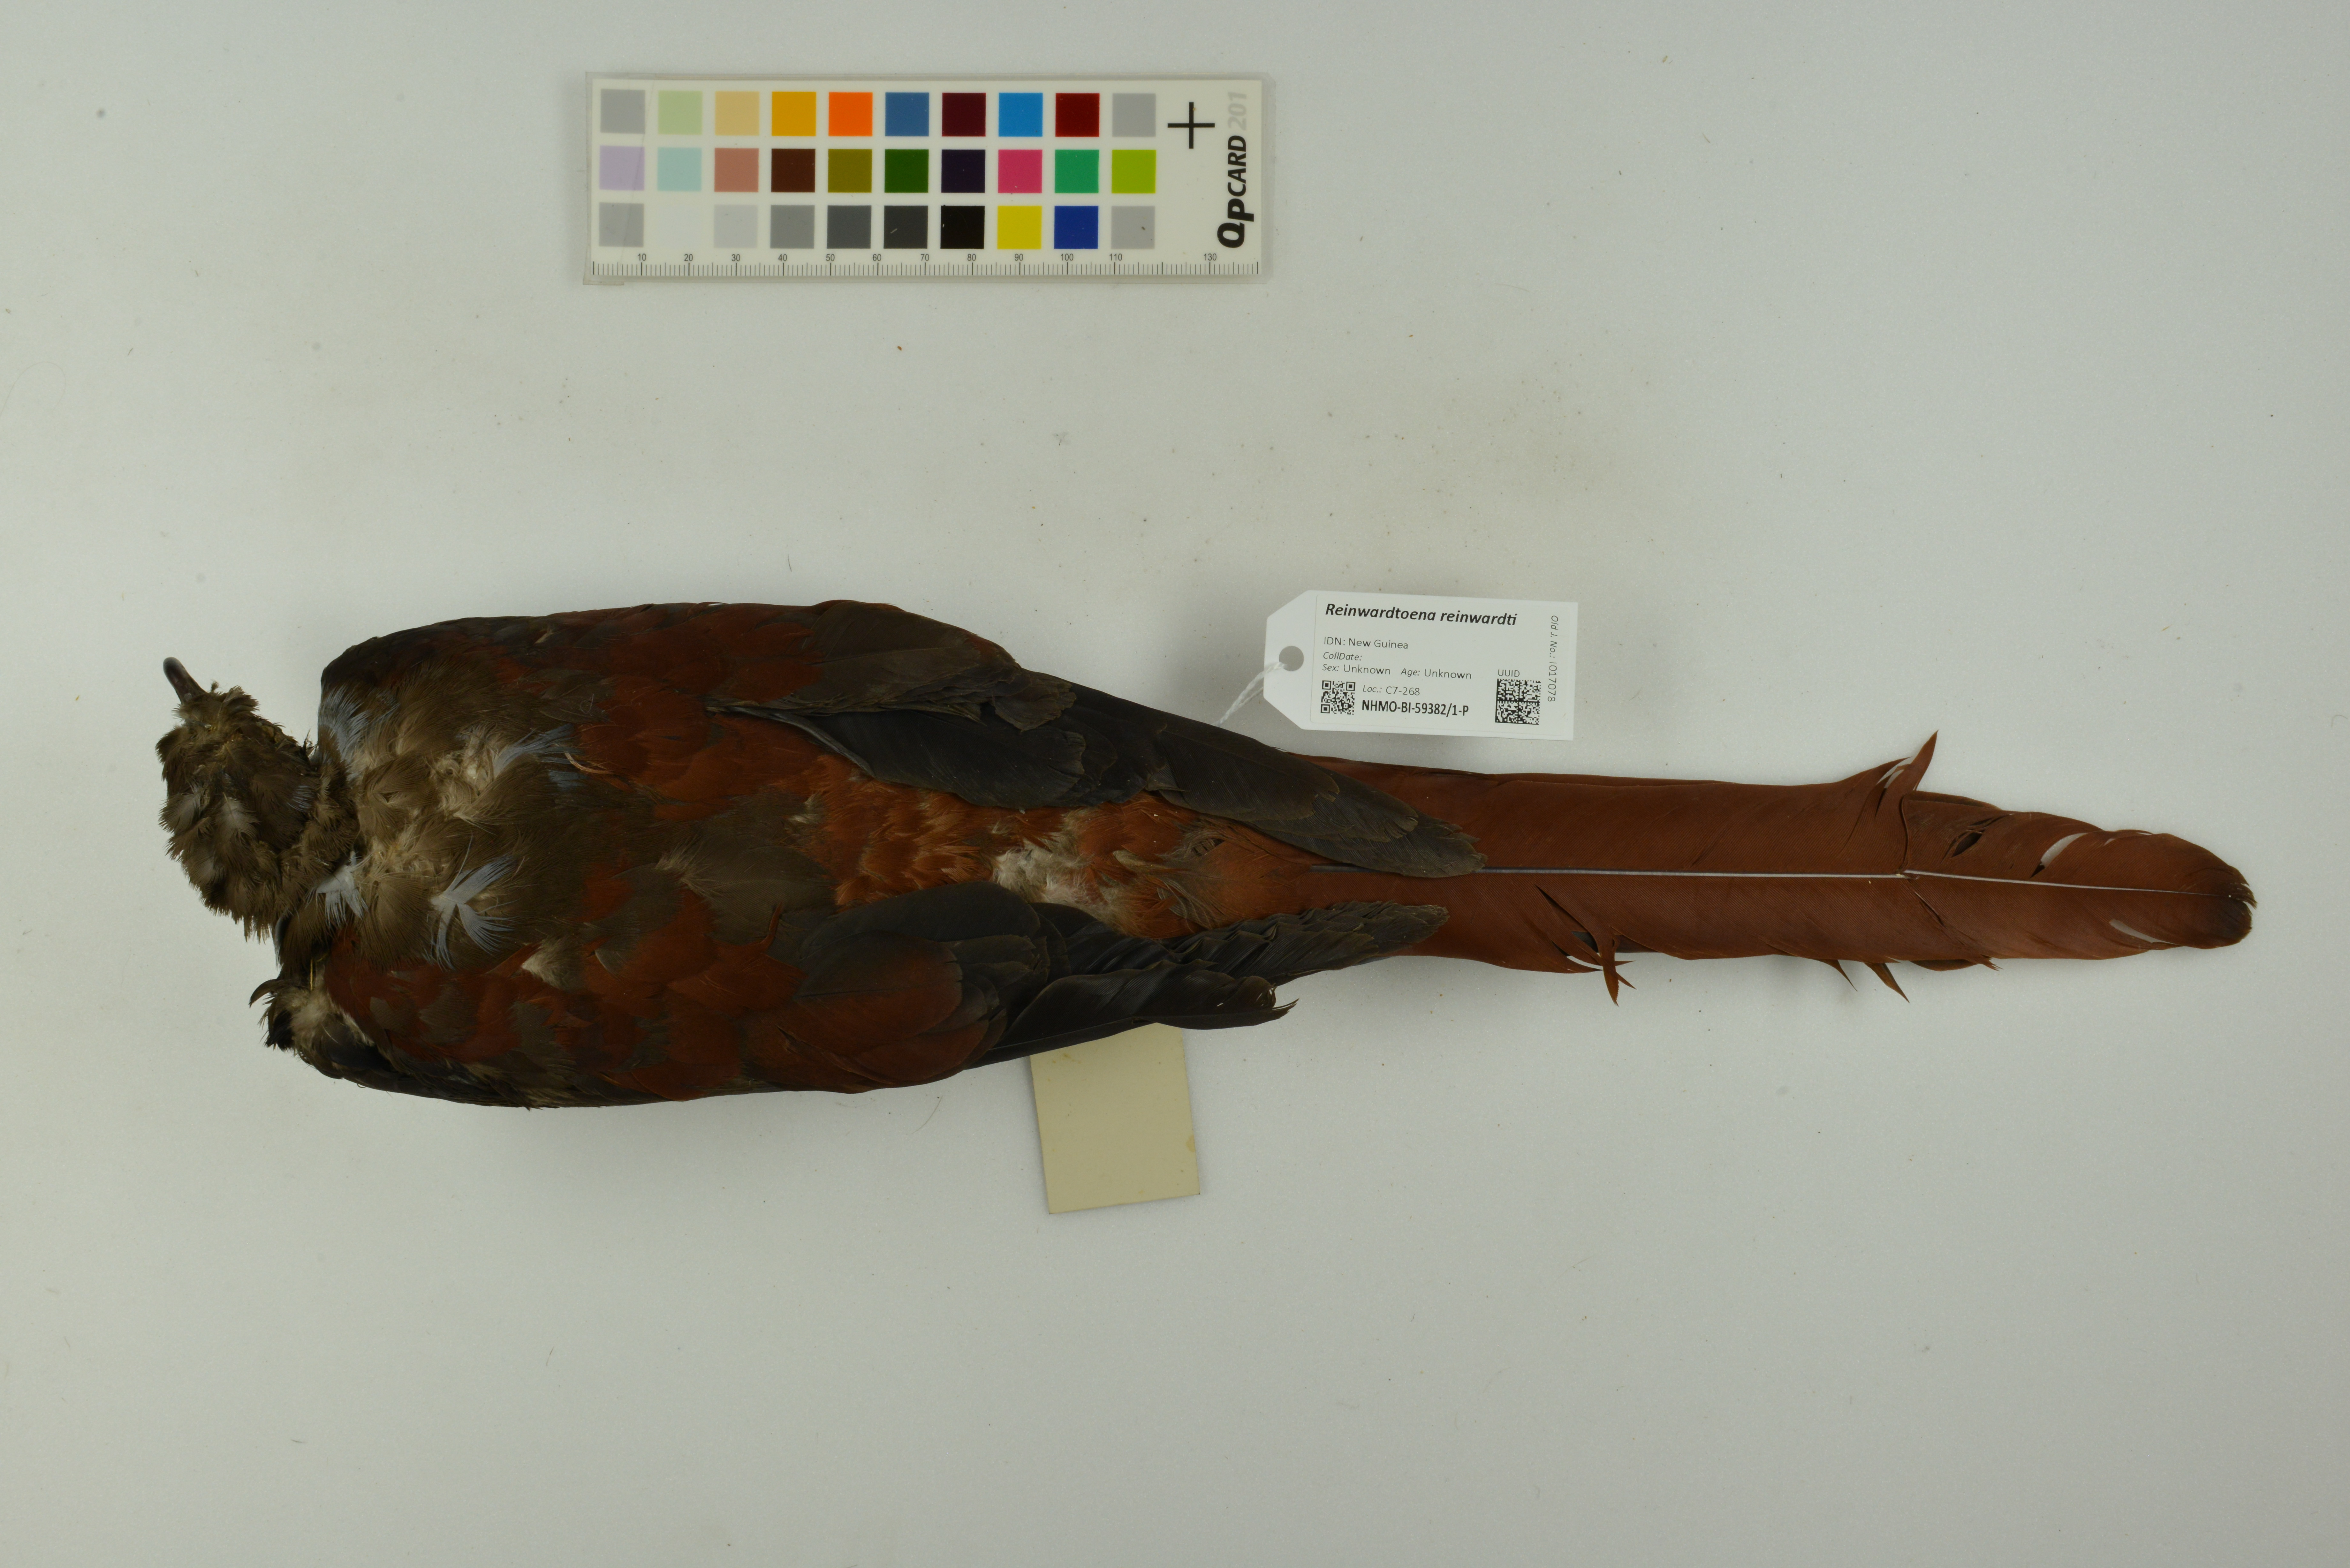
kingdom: Animalia
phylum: Chordata
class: Aves
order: Columbiformes
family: Columbidae
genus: Reinwardtoena
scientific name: Reinwardtoena reinwardti
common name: Great cuckoo-dove
